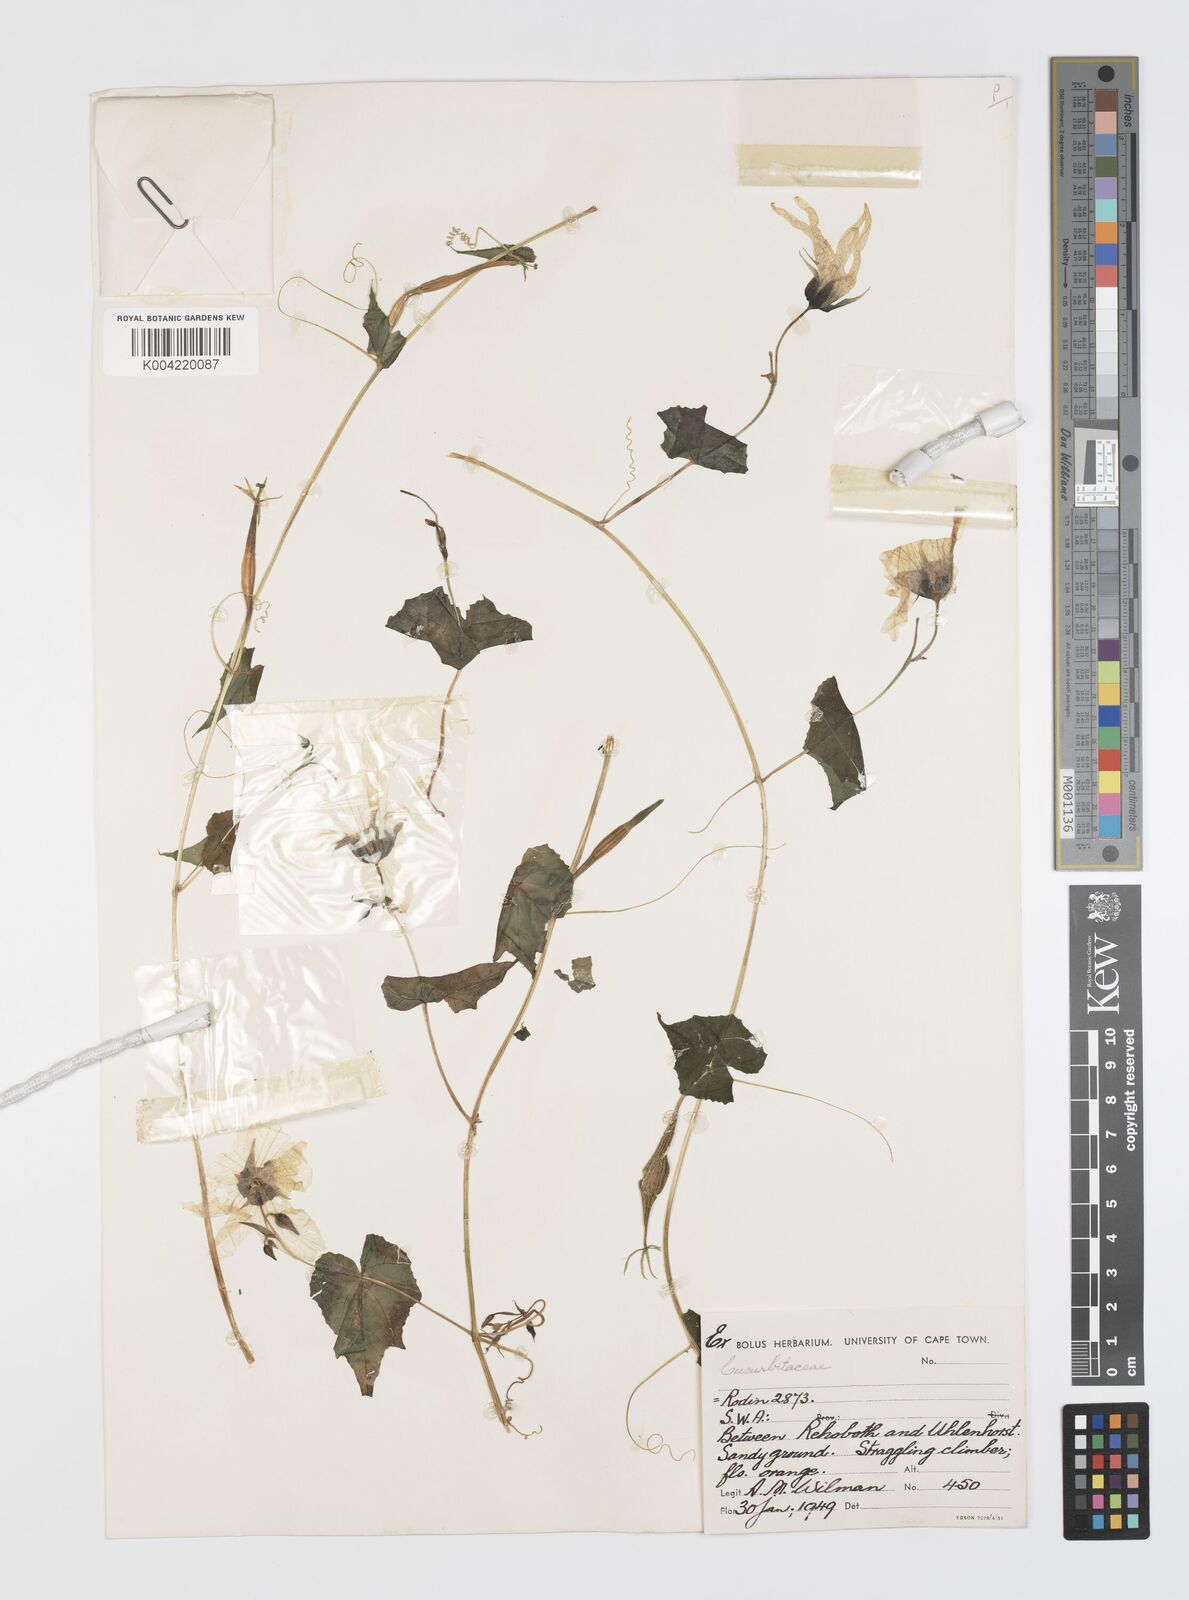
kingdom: Plantae
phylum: Tracheophyta
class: Magnoliopsida
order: Cucurbitales
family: Cucurbitaceae
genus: Momordica
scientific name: Momordica
